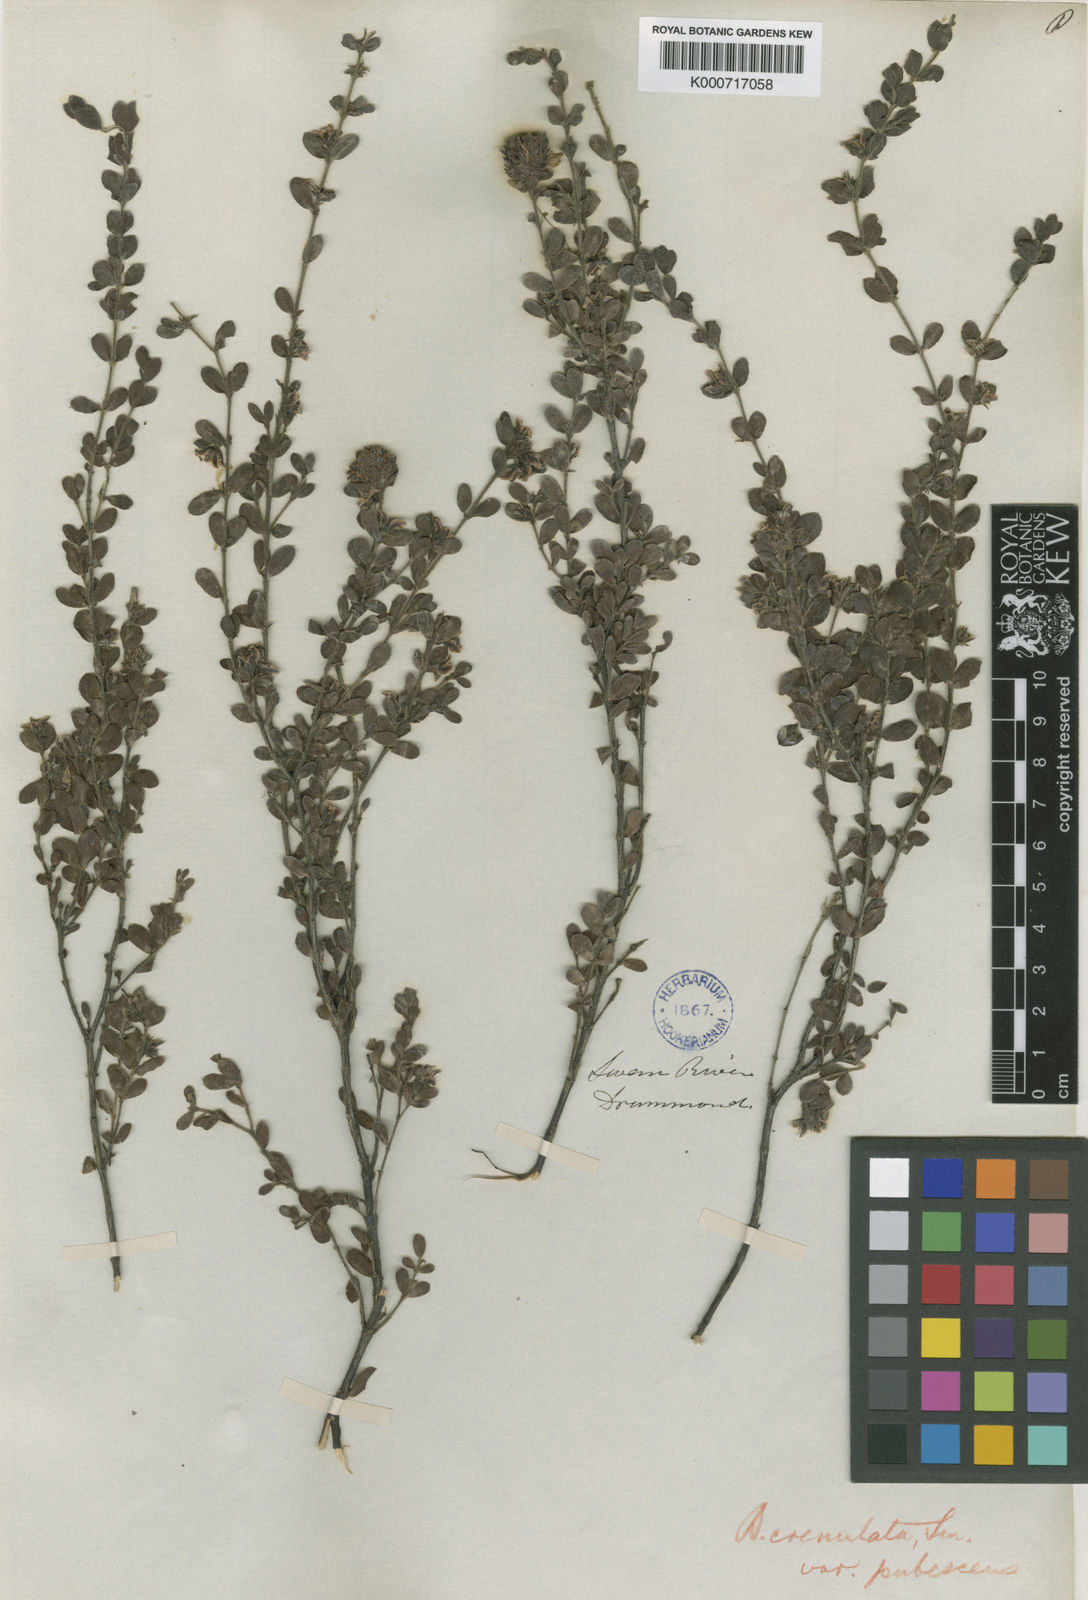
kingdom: Plantae
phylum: Tracheophyta
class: Magnoliopsida
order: Sapindales
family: Rutaceae
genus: Boronia
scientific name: Boronia crenulata
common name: Aniseed boronia
